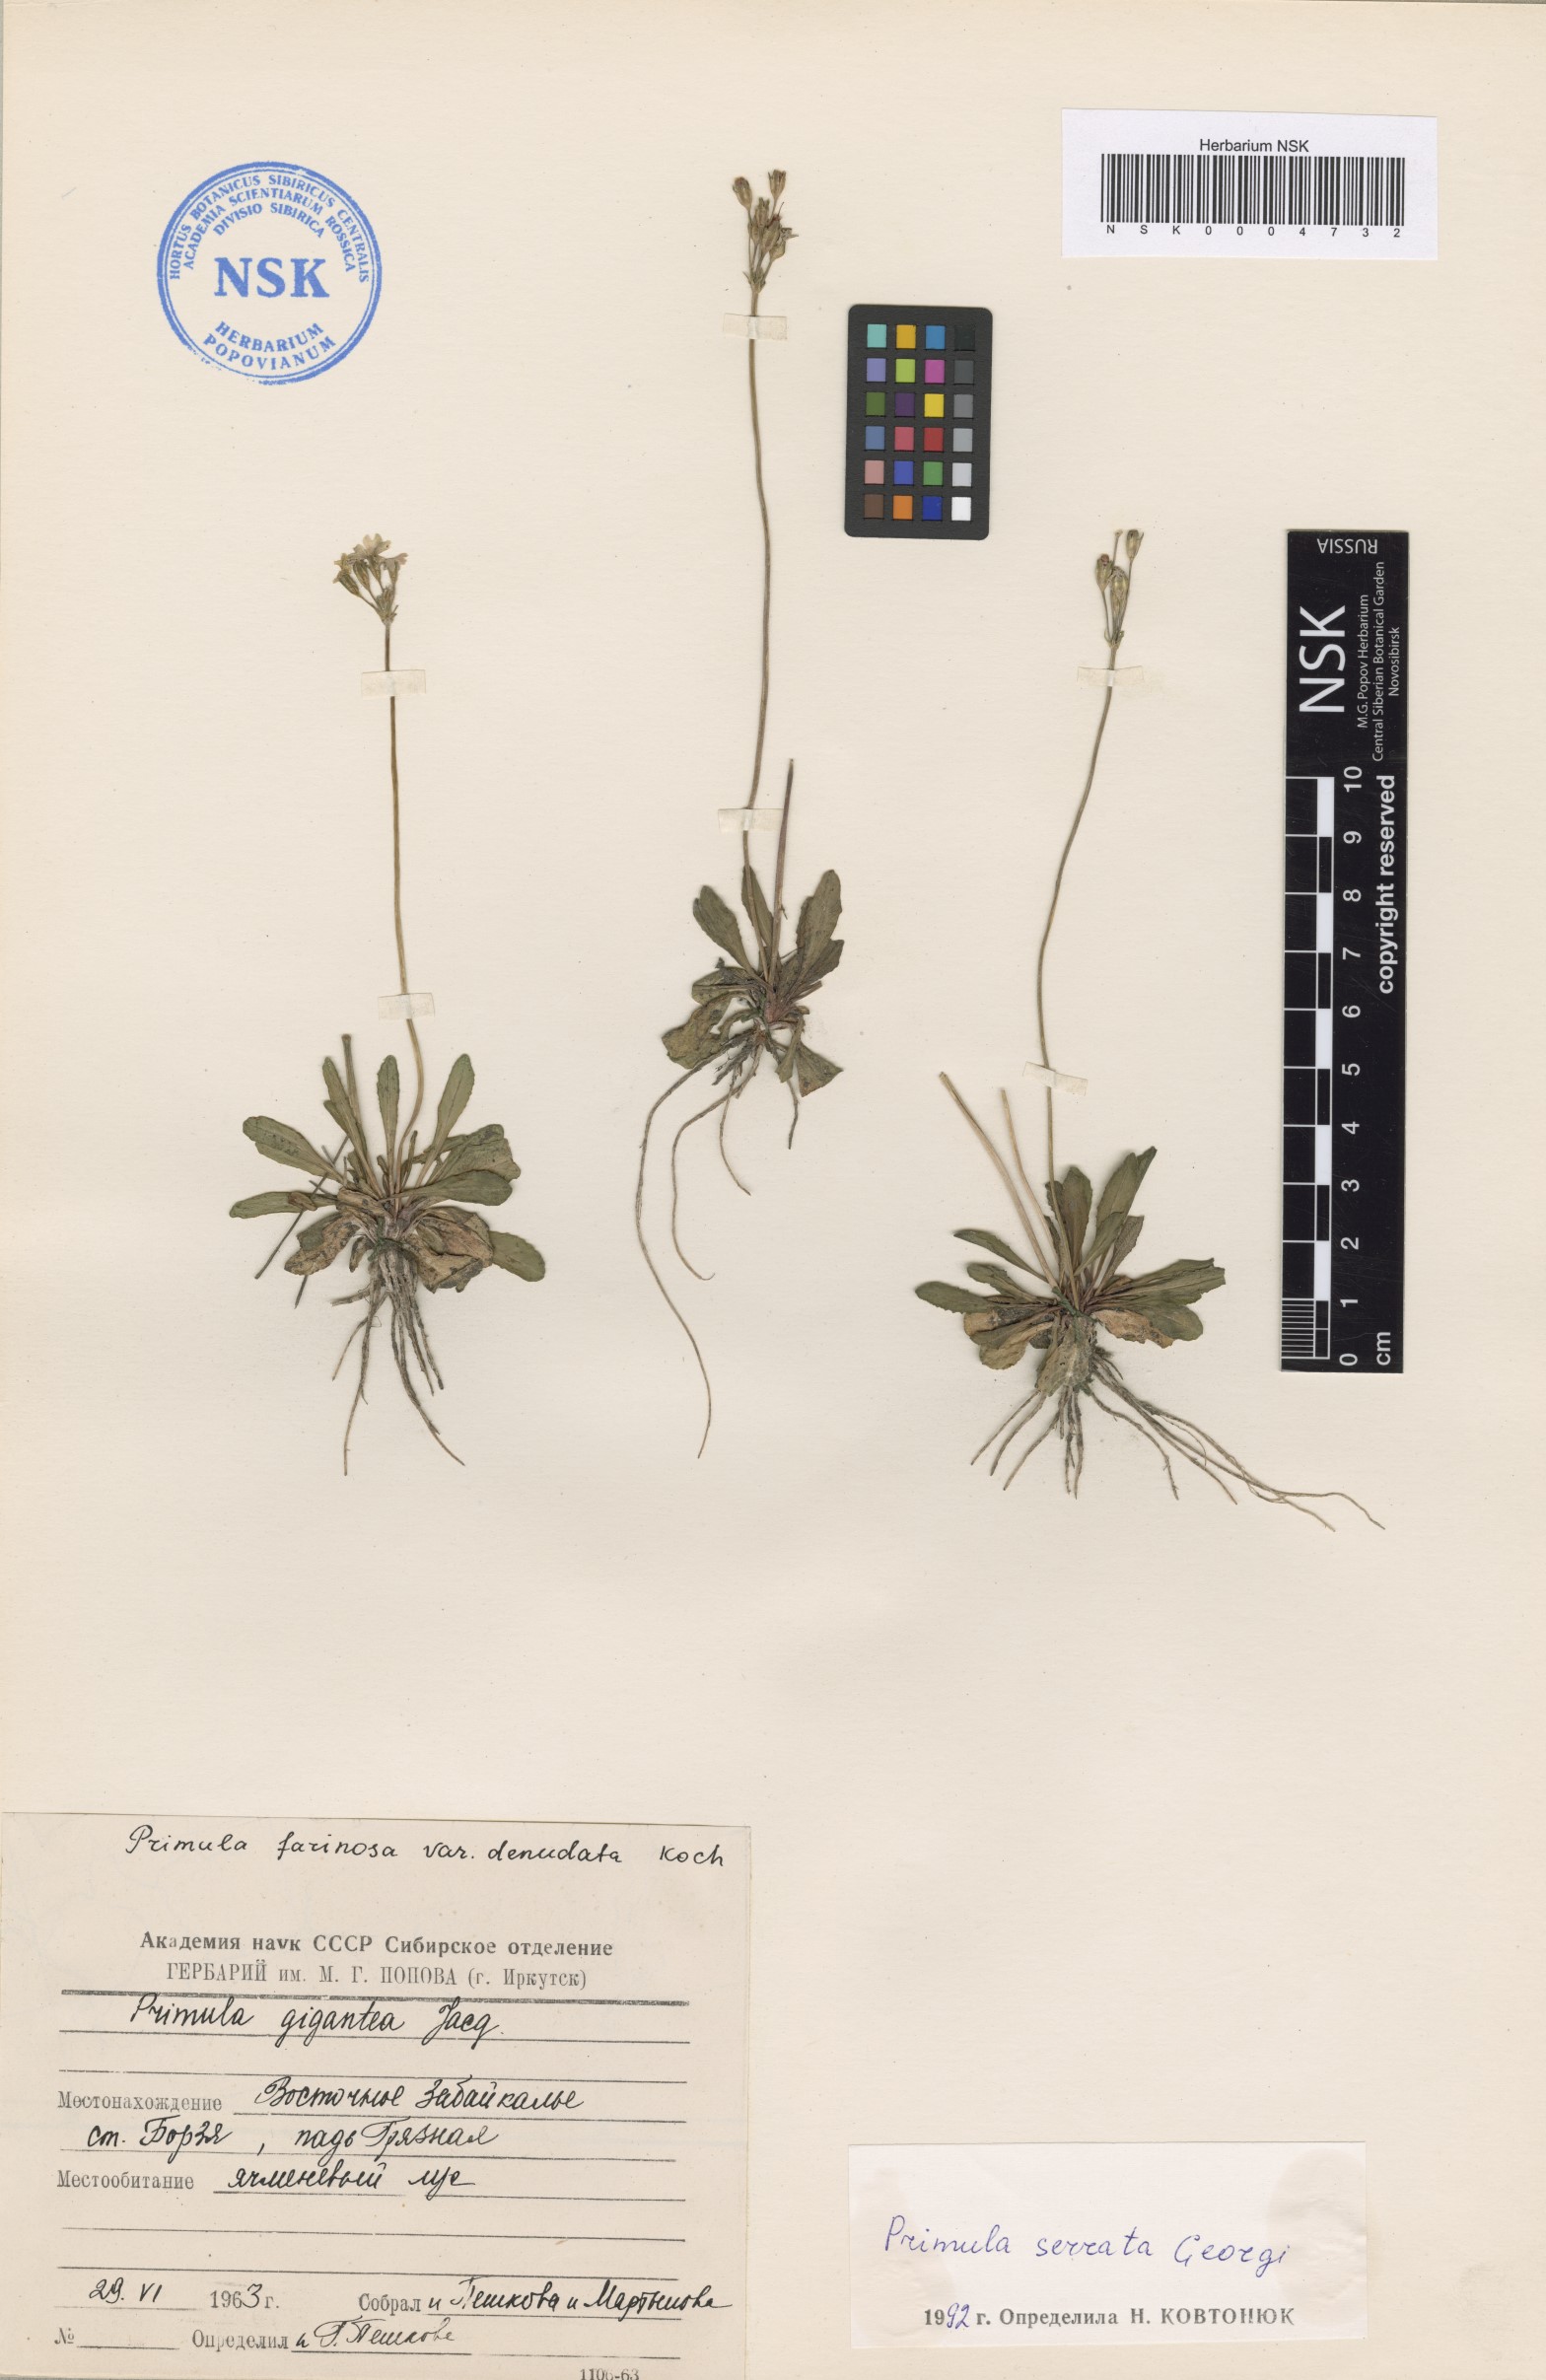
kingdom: Plantae
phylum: Tracheophyta
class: Magnoliopsida
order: Ericales
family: Primulaceae
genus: Primula
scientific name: Primula serrata
